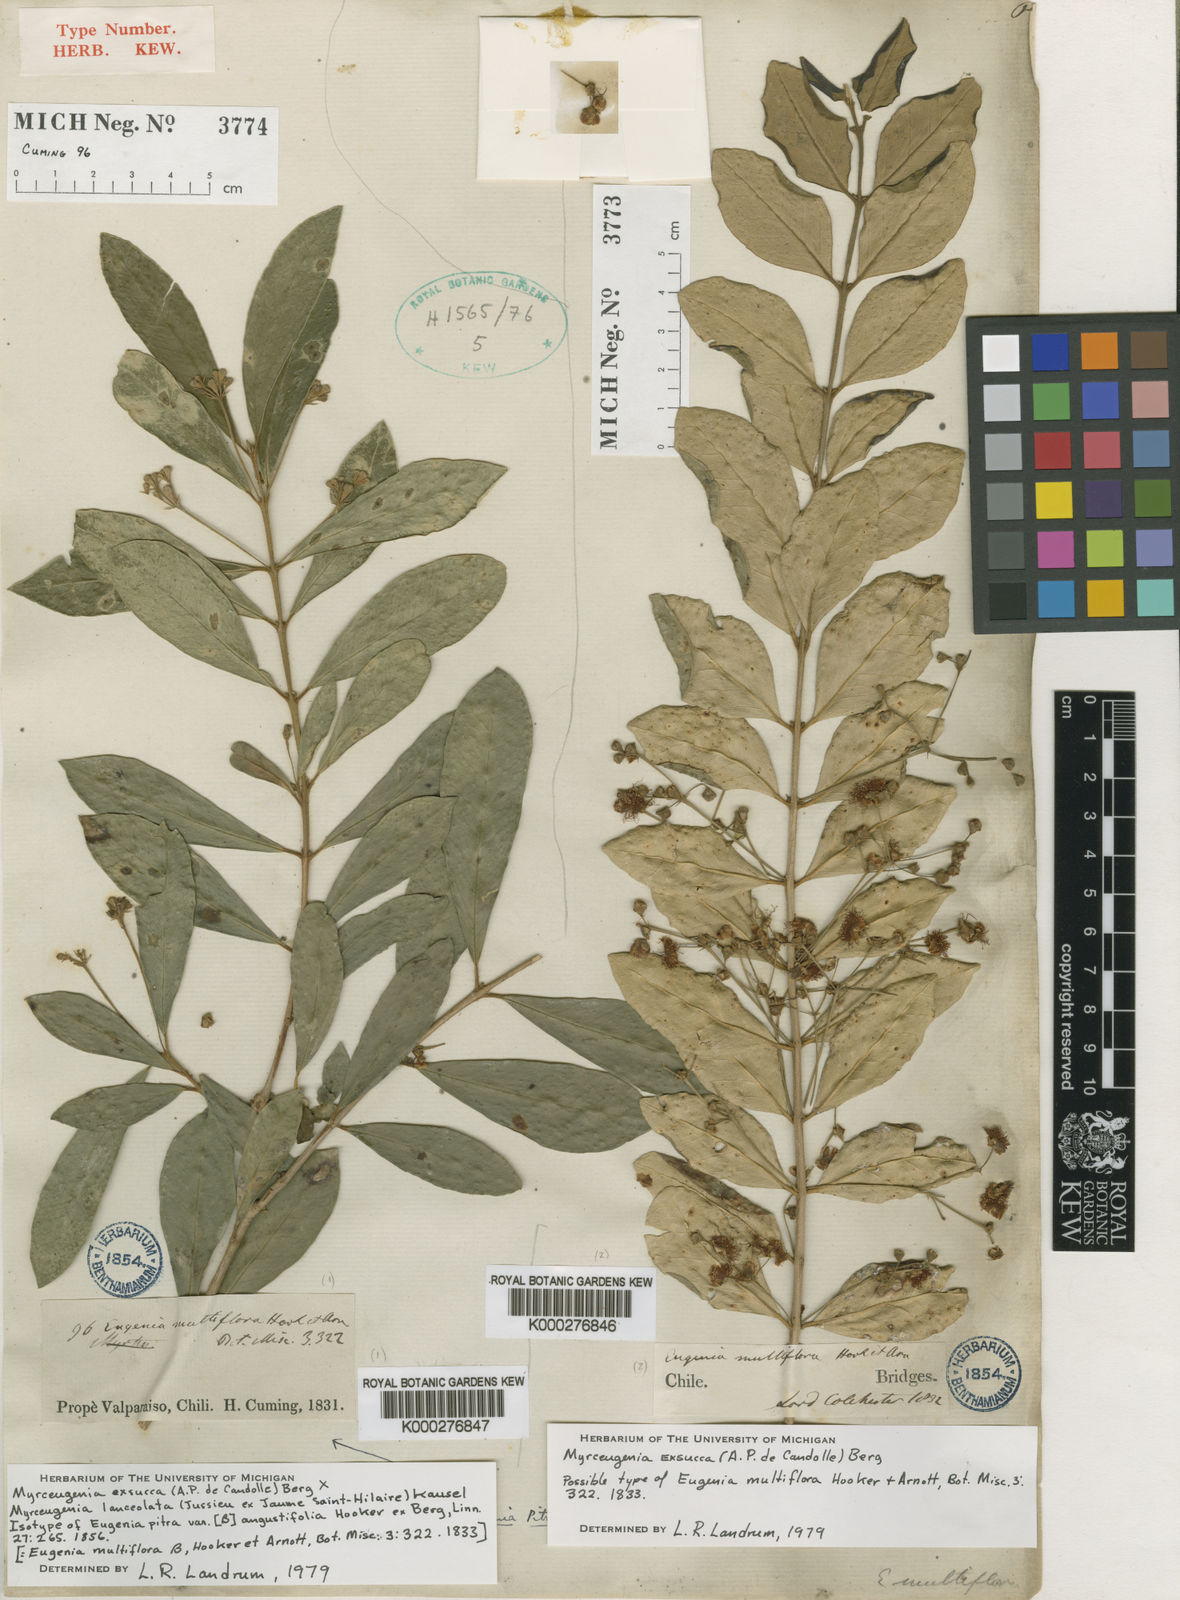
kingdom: Plantae
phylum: Tracheophyta
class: Magnoliopsida
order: Myrtales
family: Myrtaceae
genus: Myrceugenia
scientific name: Myrceugenia exsucca
